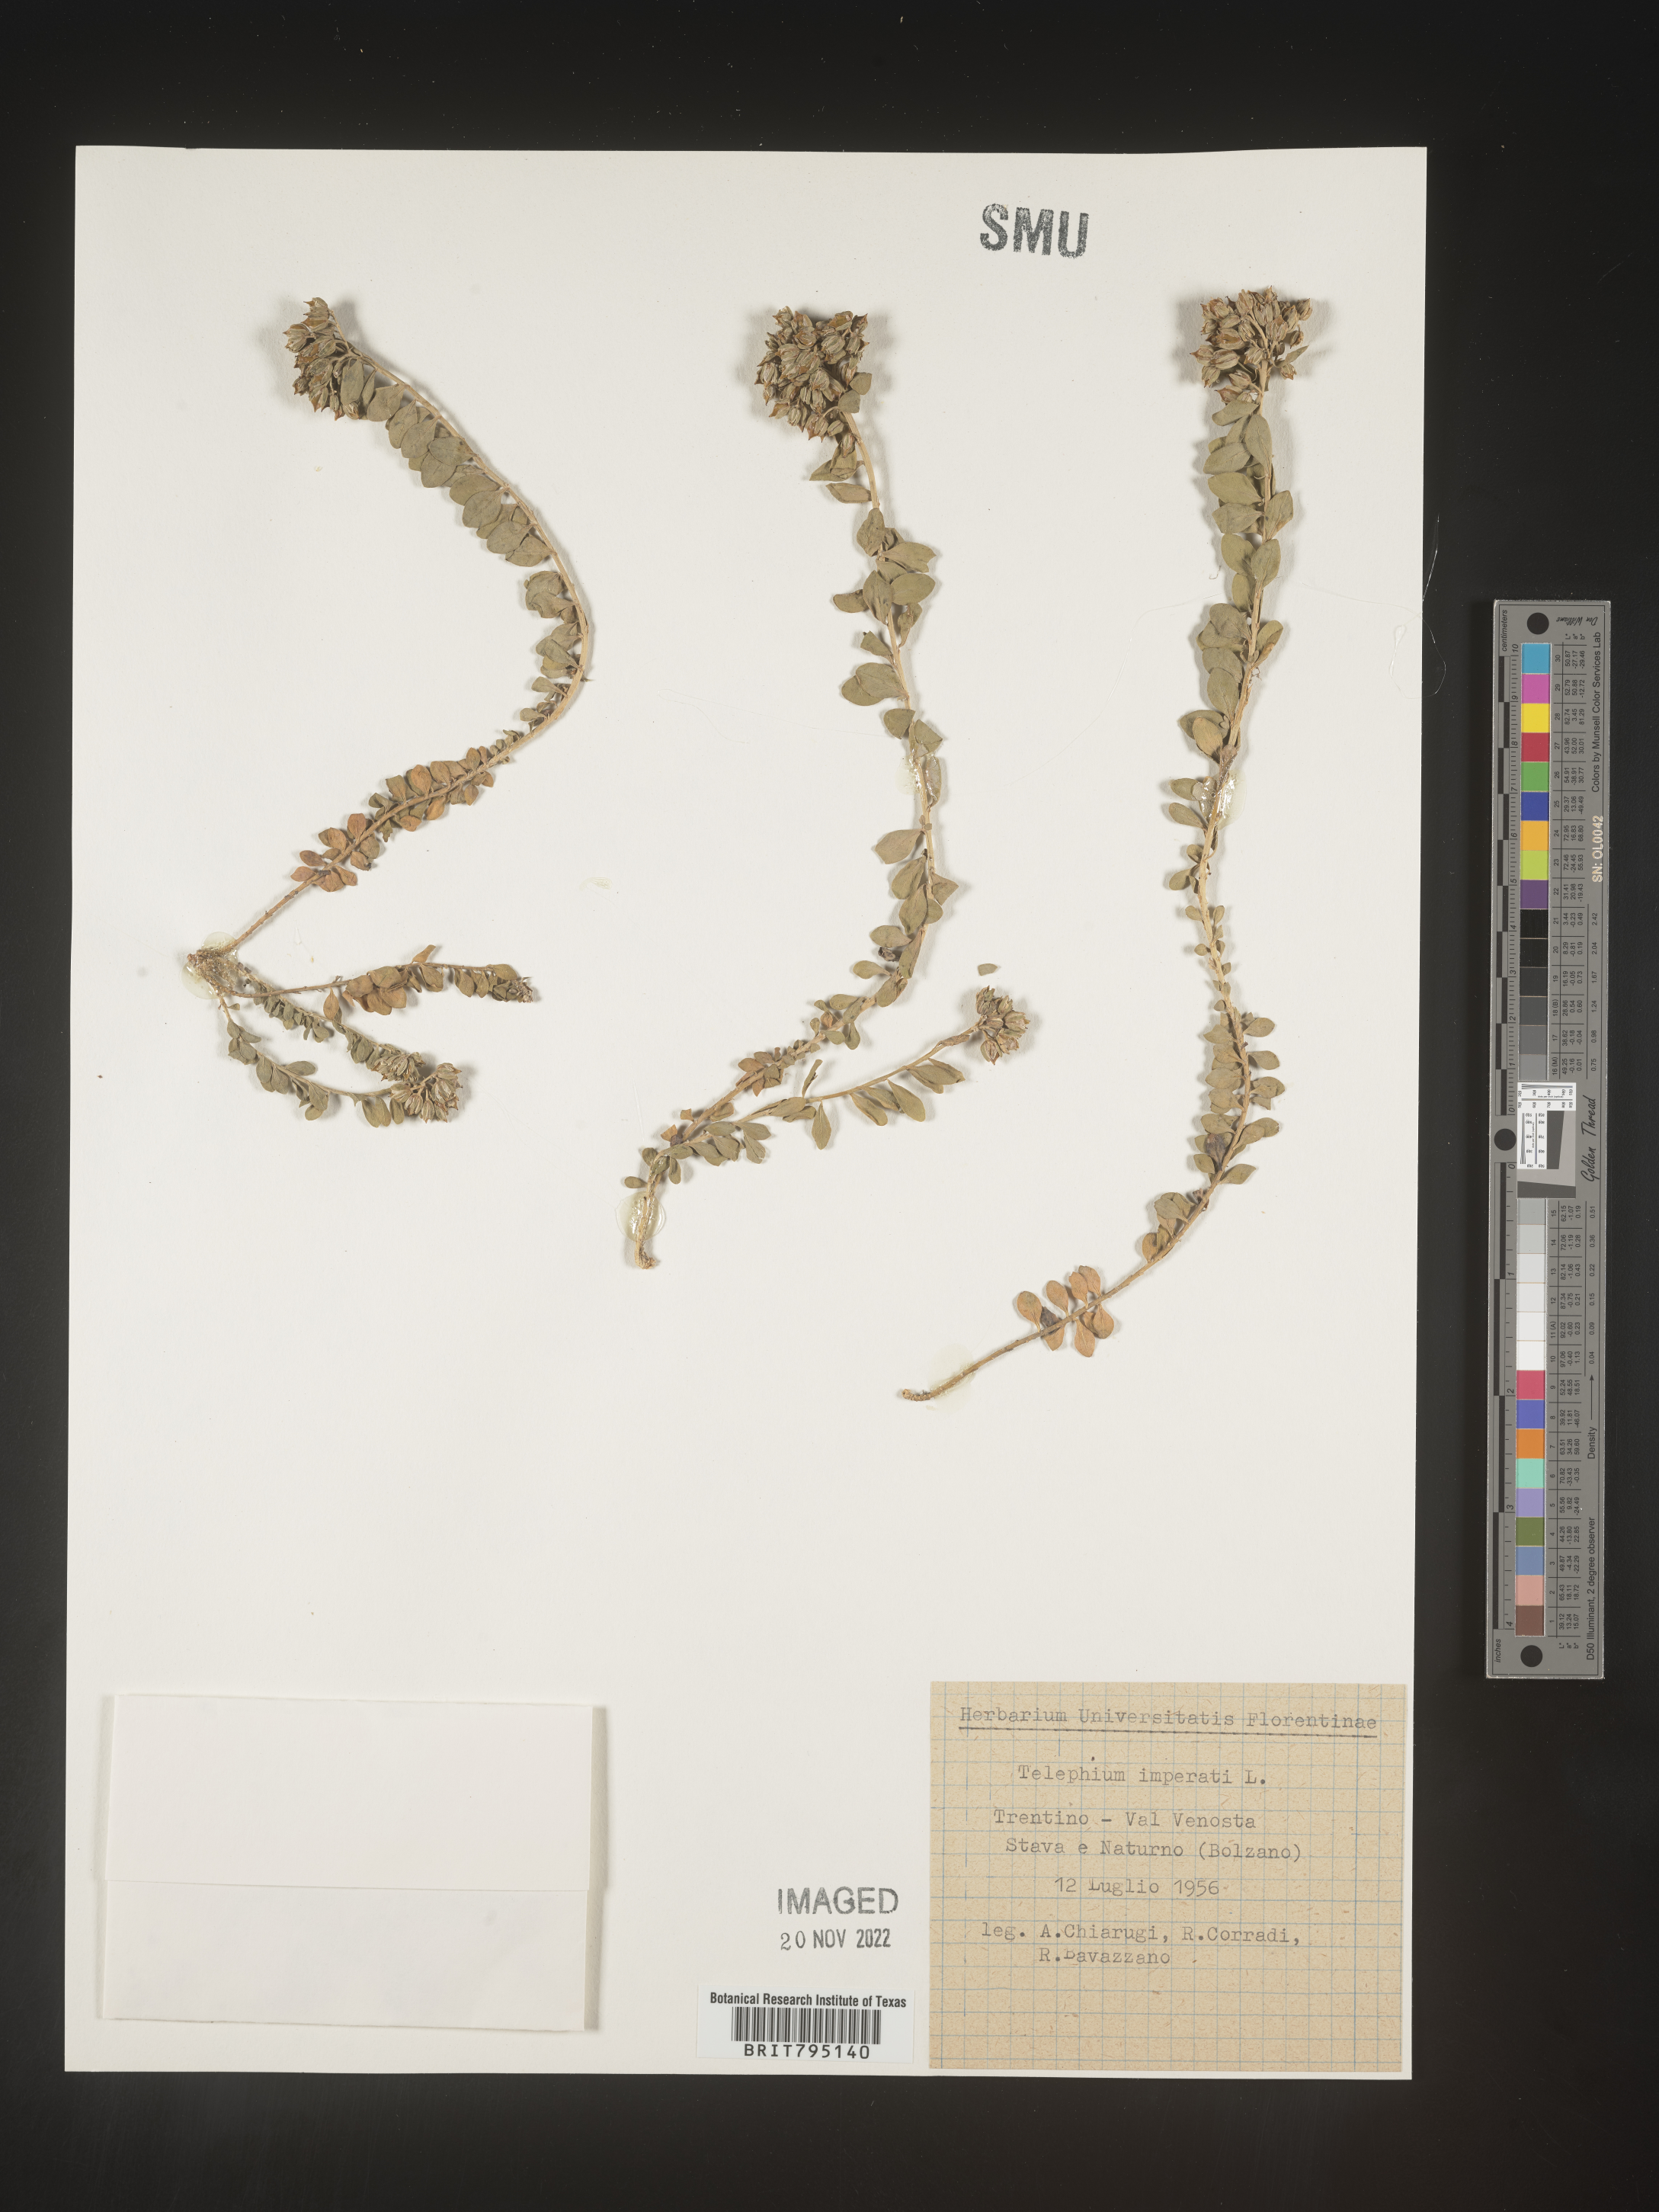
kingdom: Plantae
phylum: Tracheophyta
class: Magnoliopsida
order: Caryophyllales
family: Caryophyllaceae
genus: Telephium
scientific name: Telephium
